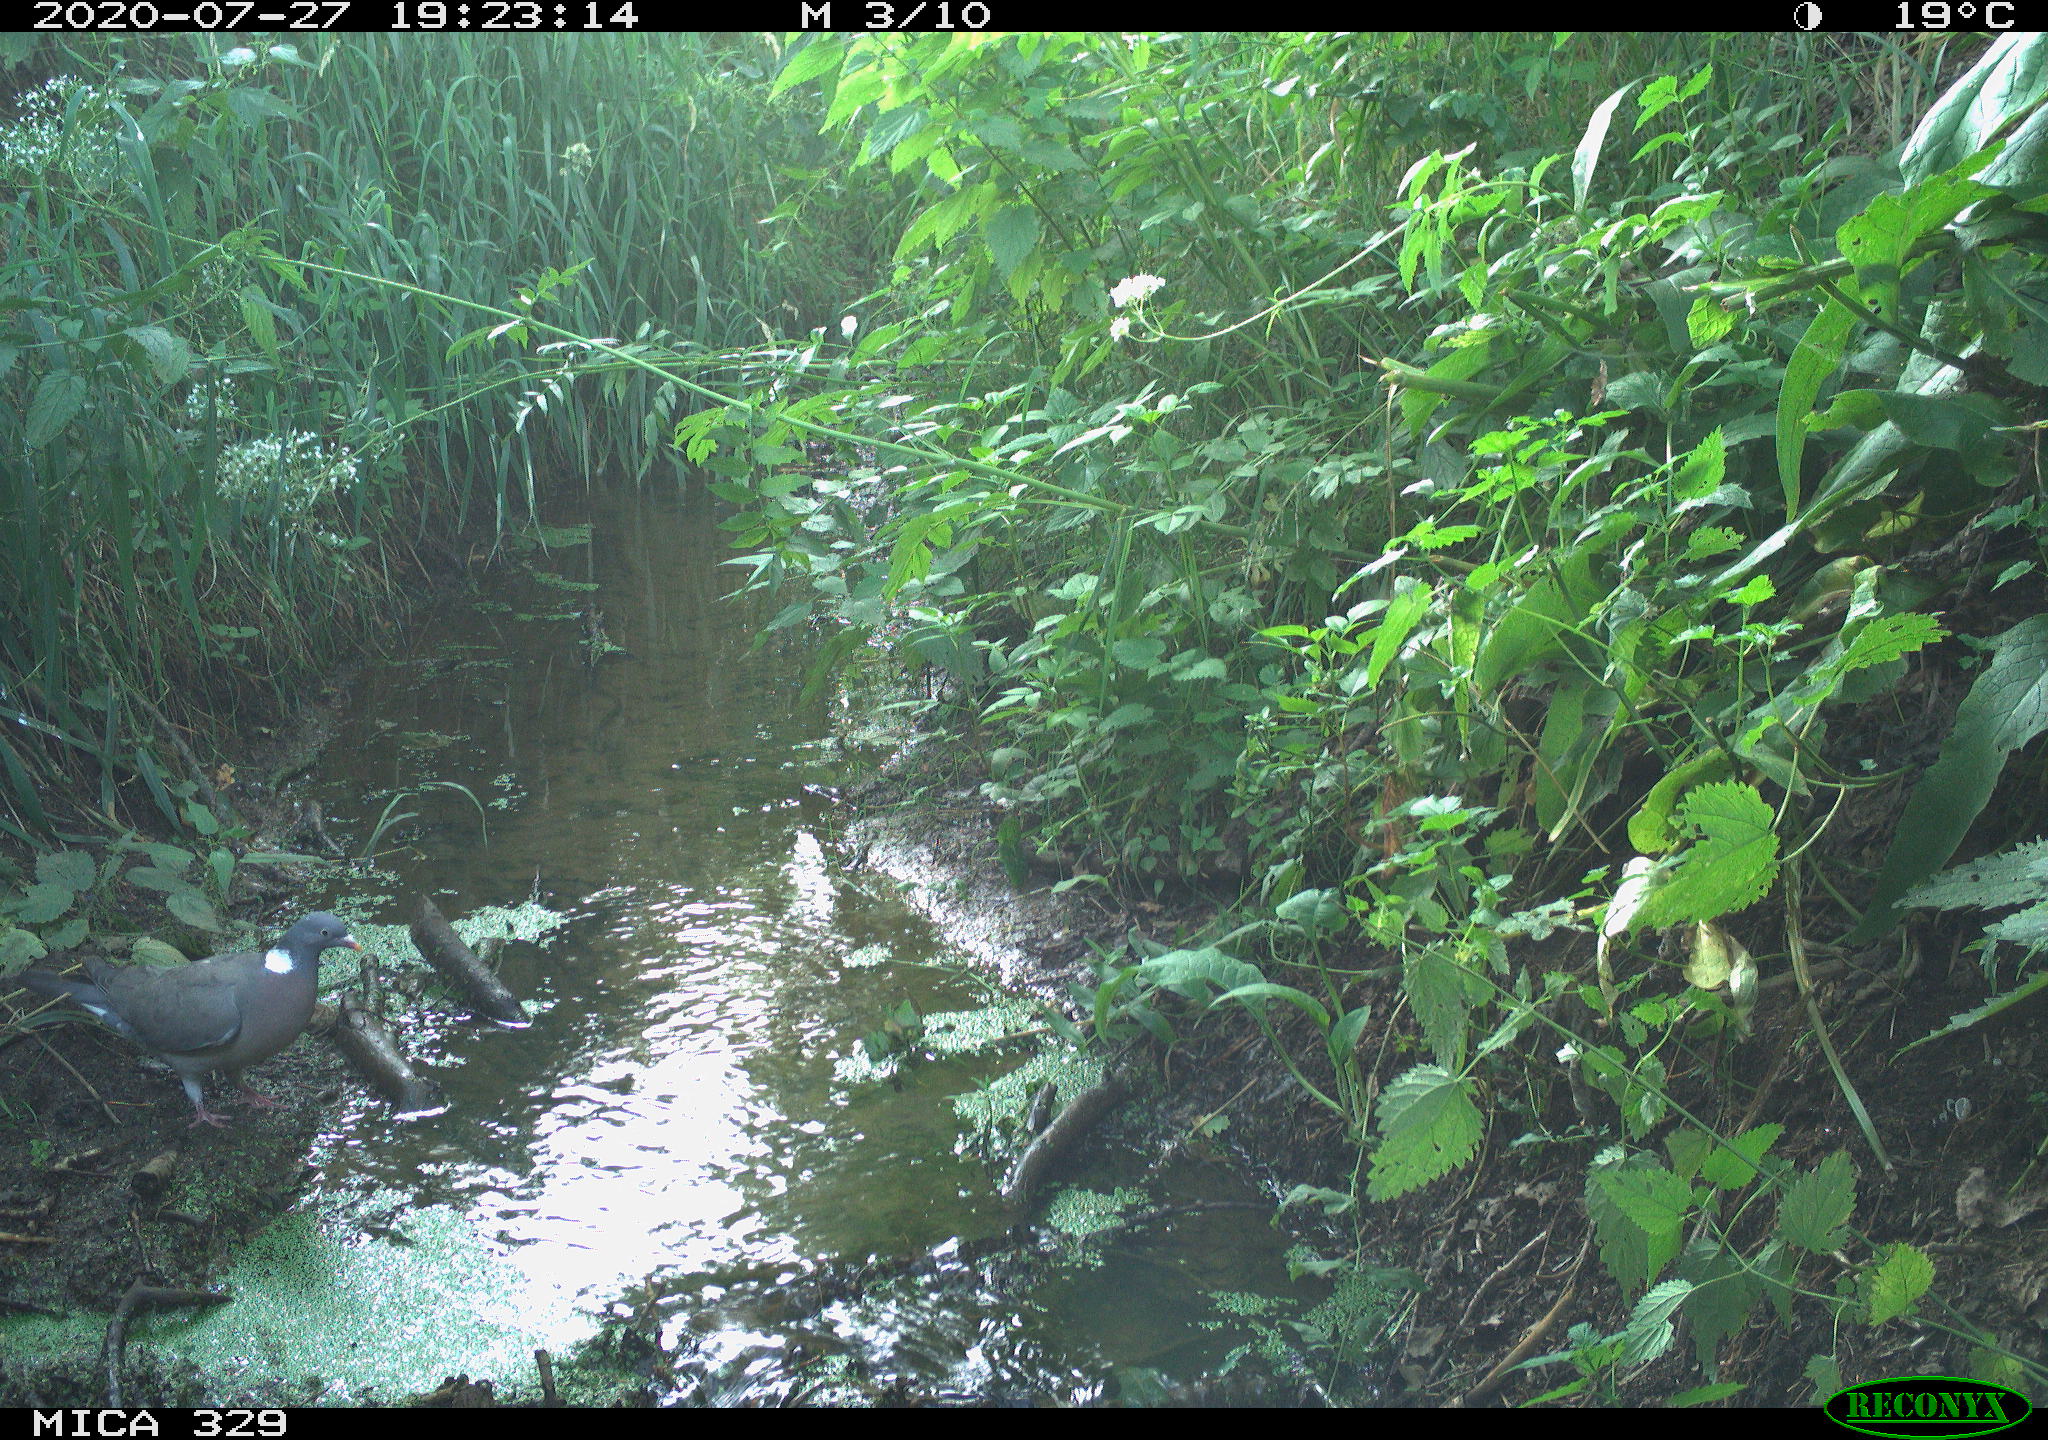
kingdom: Animalia
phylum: Chordata
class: Aves
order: Columbiformes
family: Columbidae
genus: Columba
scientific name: Columba palumbus
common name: Common wood pigeon
